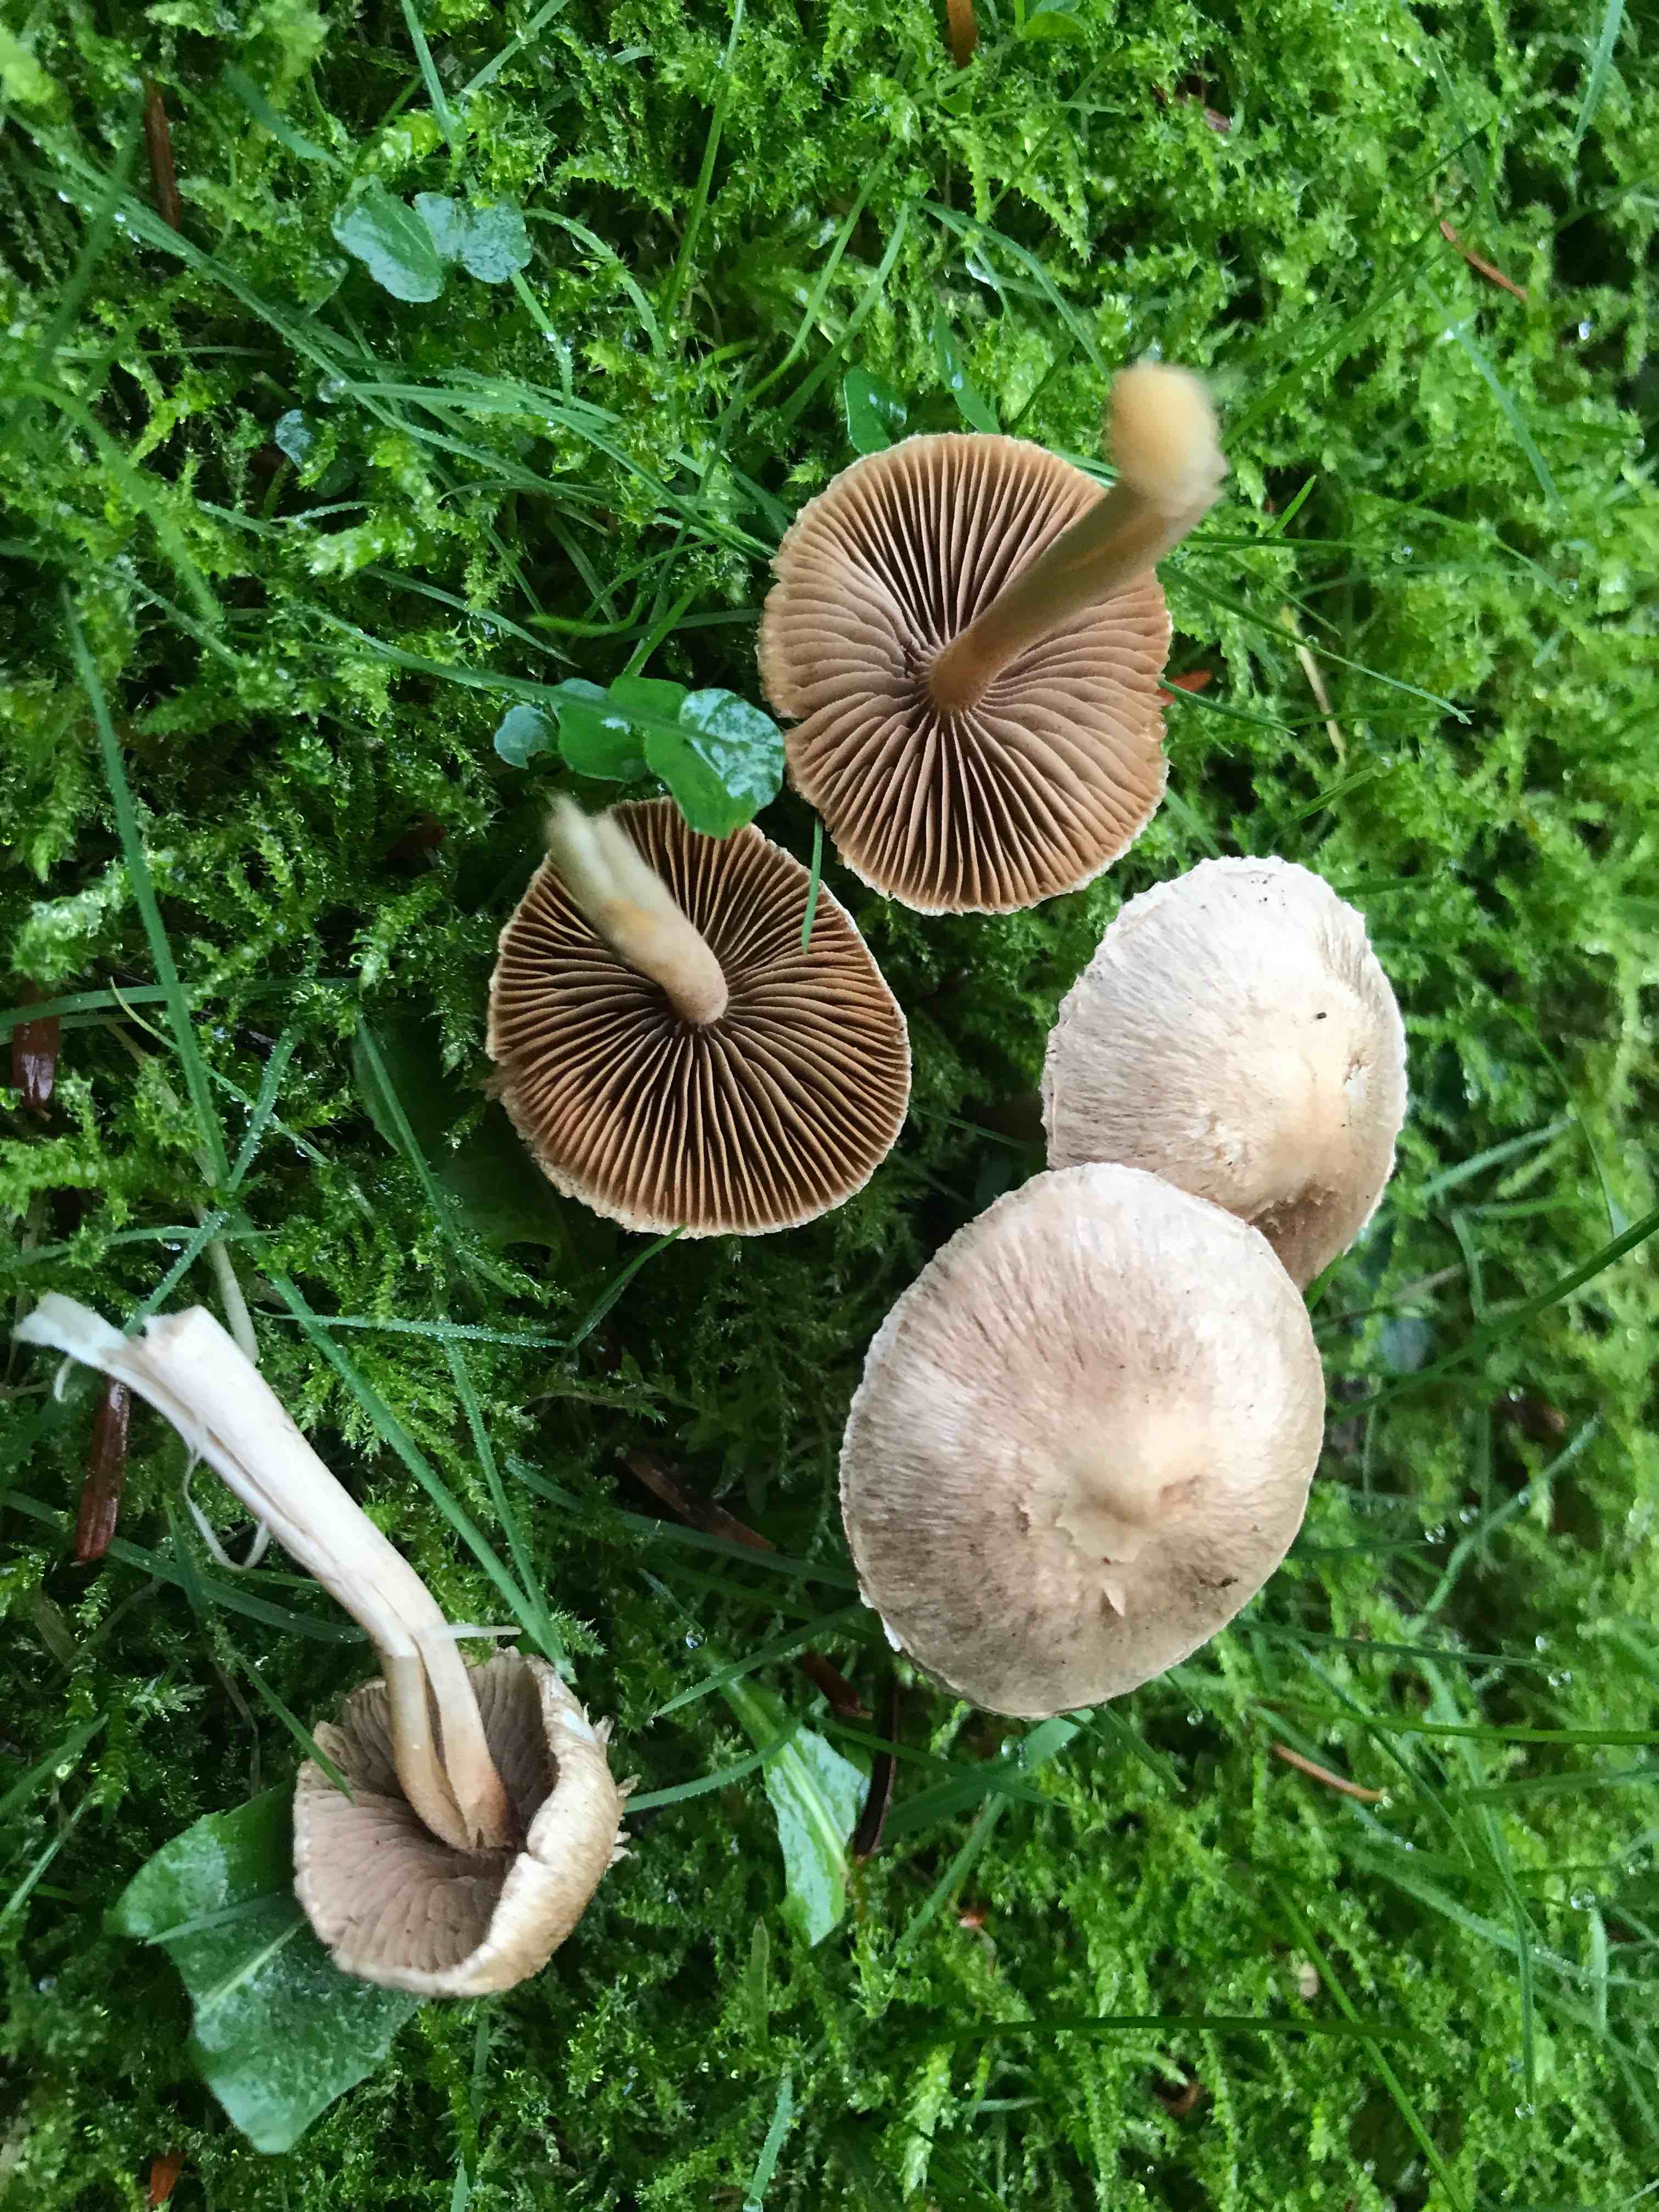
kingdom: Fungi
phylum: Basidiomycota
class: Agaricomycetes
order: Agaricales
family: Inocybaceae
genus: Inocybe
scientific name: Inocybe
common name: trævlhat
